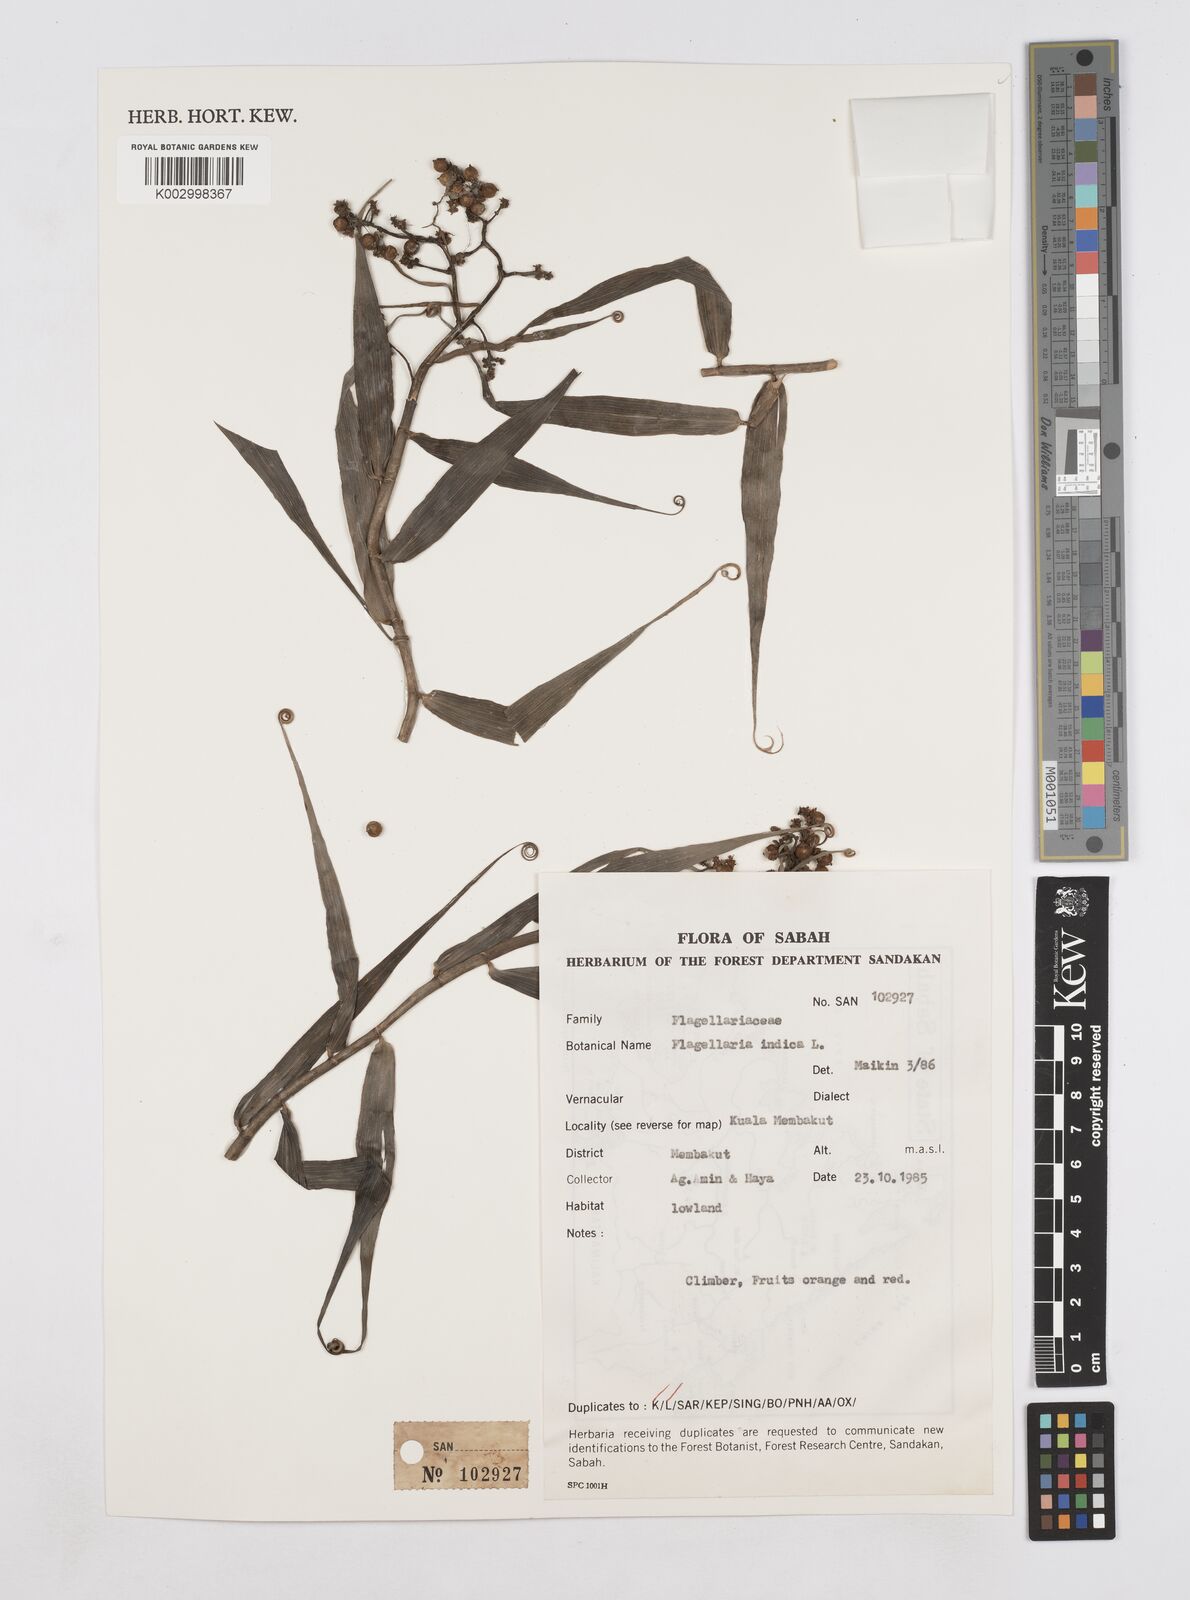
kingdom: Plantae
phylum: Tracheophyta
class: Liliopsida
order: Poales
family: Flagellariaceae
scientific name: Flagellariaceae
